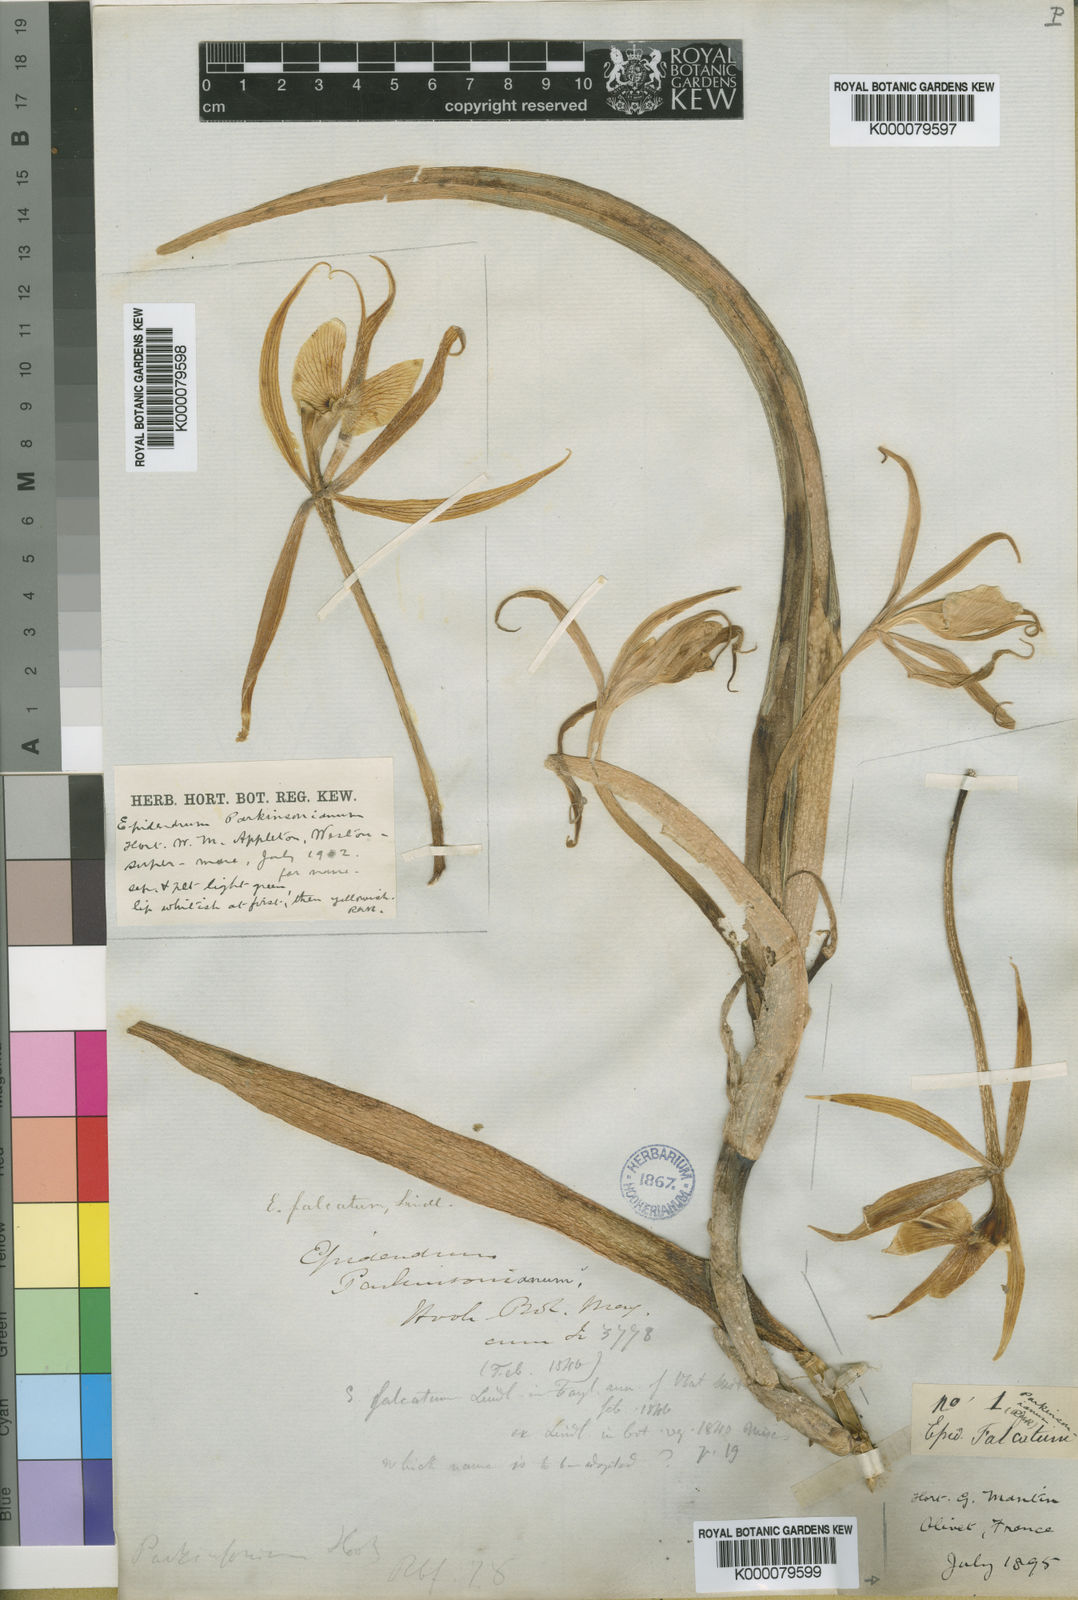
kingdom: Plantae
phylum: Tracheophyta
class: Liliopsida
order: Asparagales
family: Orchidaceae
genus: Epidendrum
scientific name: Epidendrum falcatum
